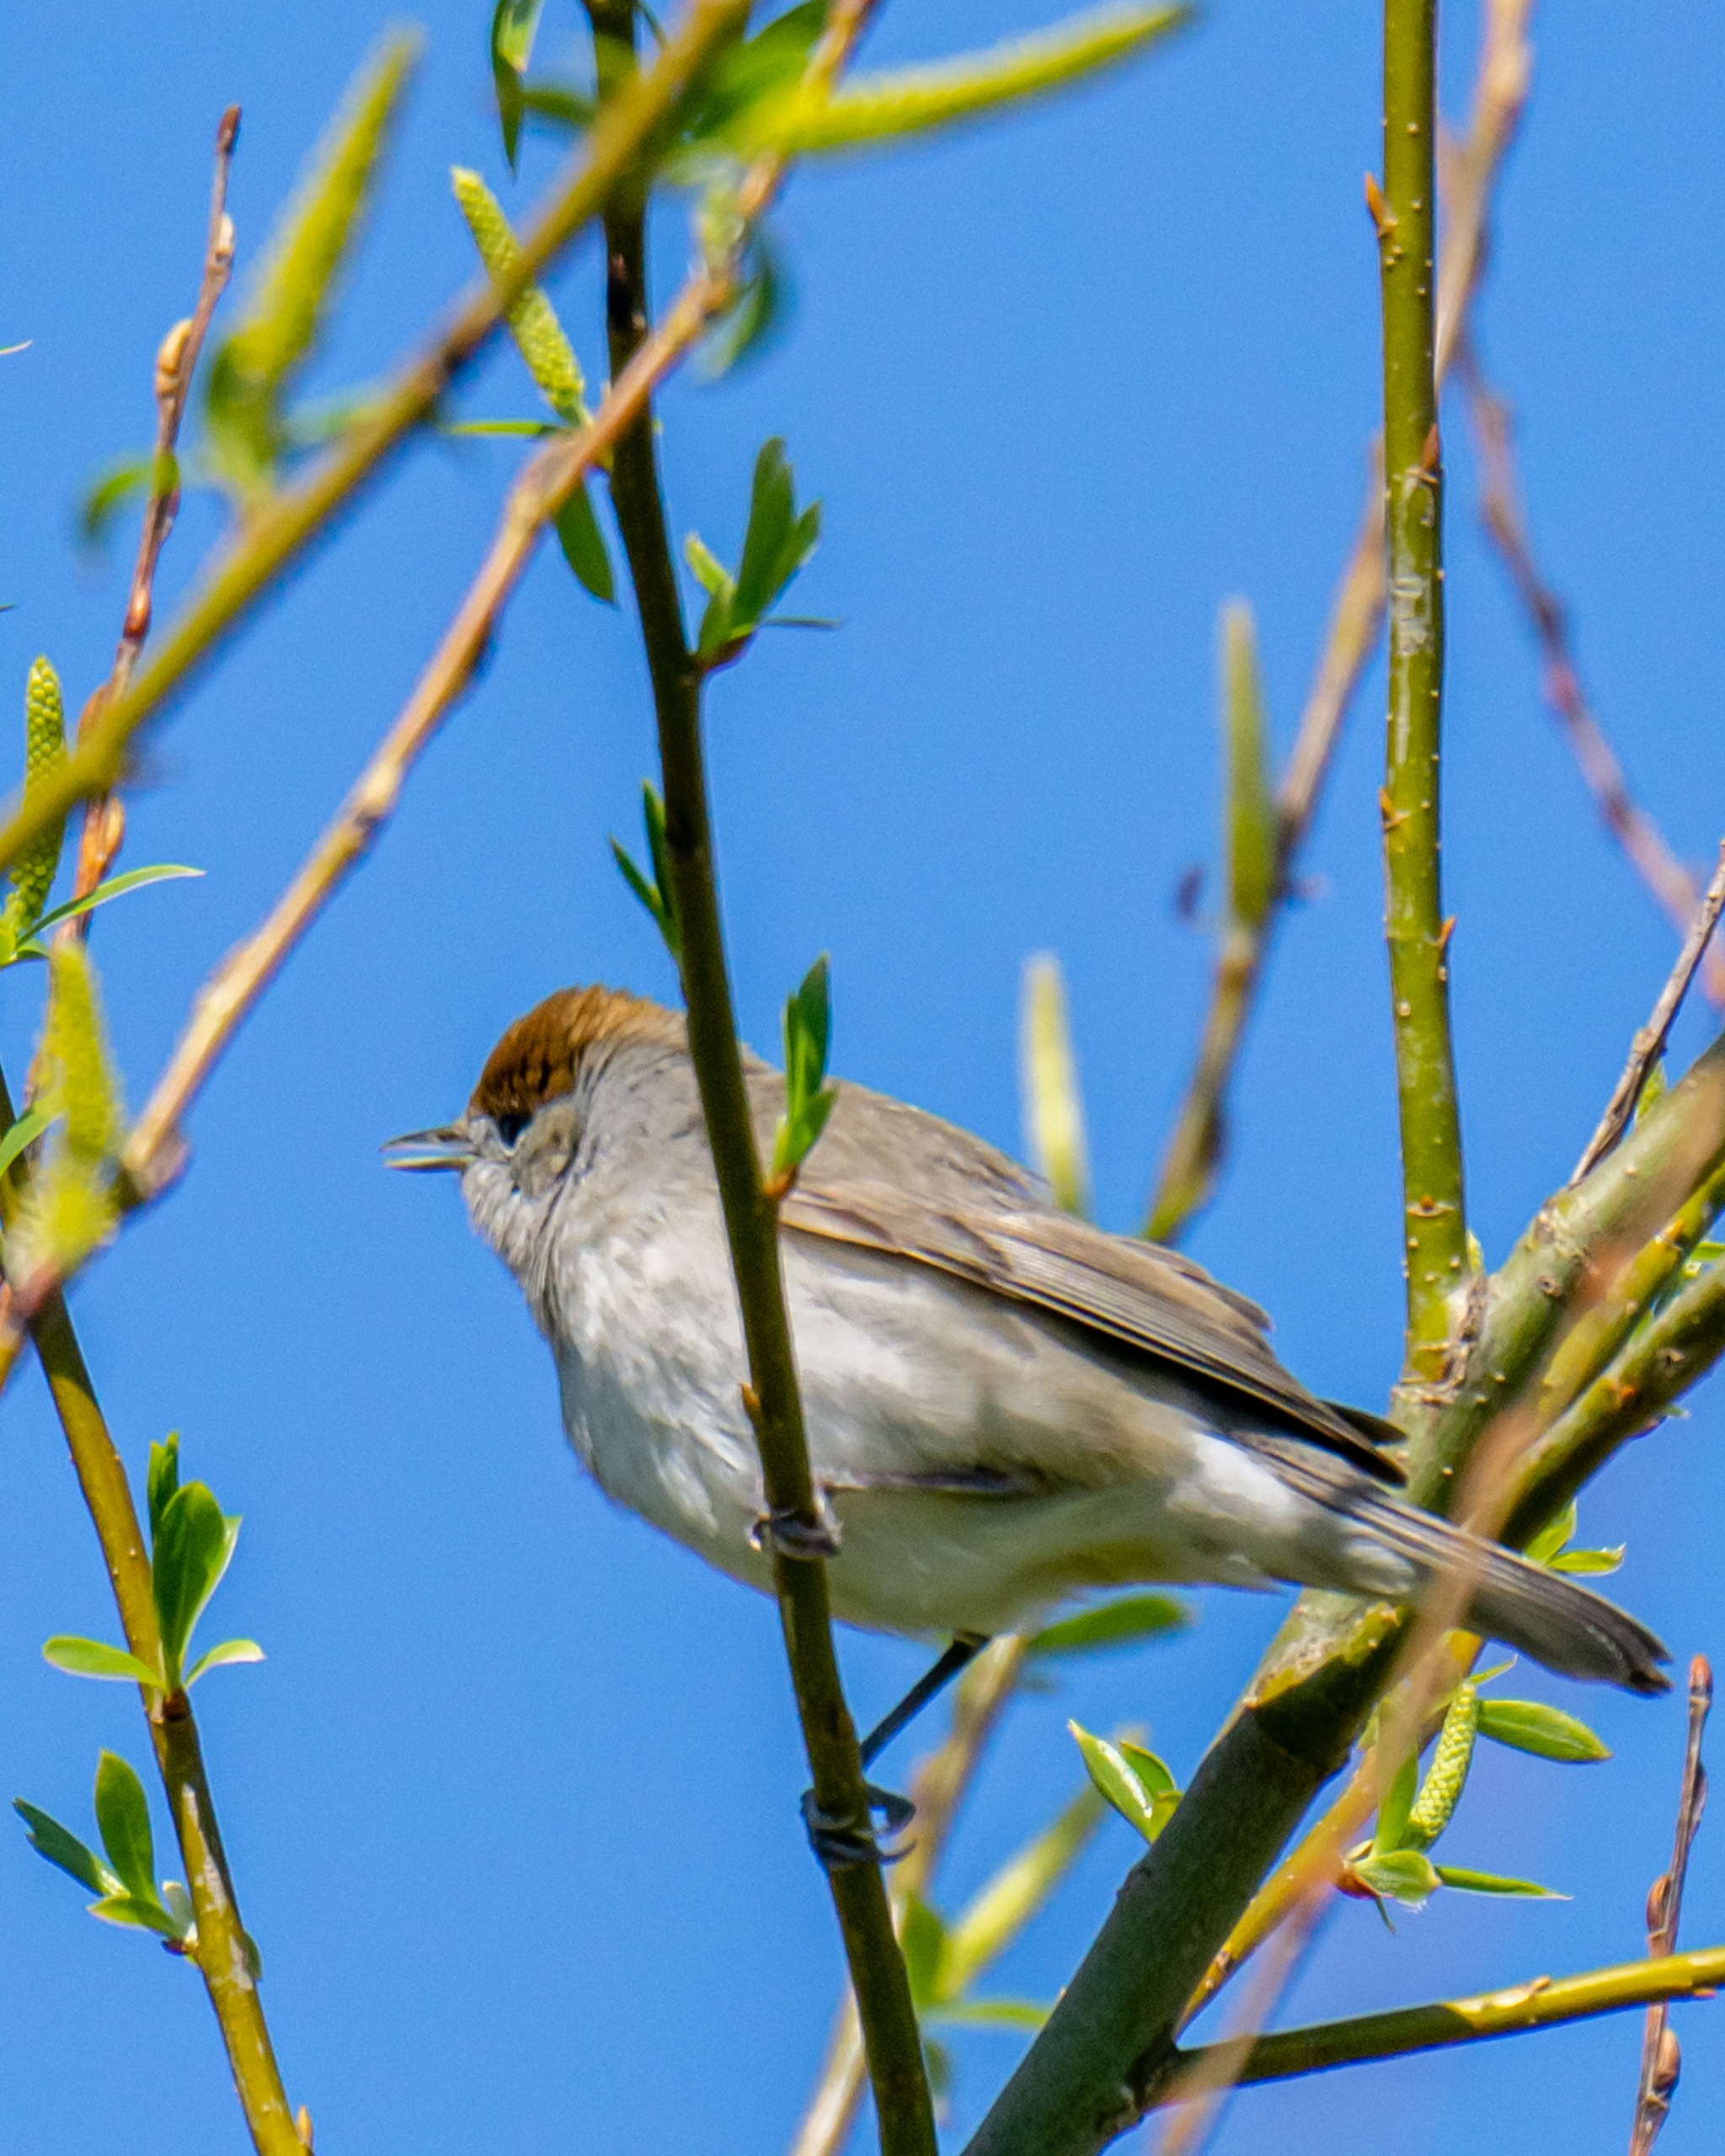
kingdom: Animalia
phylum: Chordata
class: Aves
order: Passeriformes
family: Sylviidae
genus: Sylvia
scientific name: Sylvia atricapilla
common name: Munk
